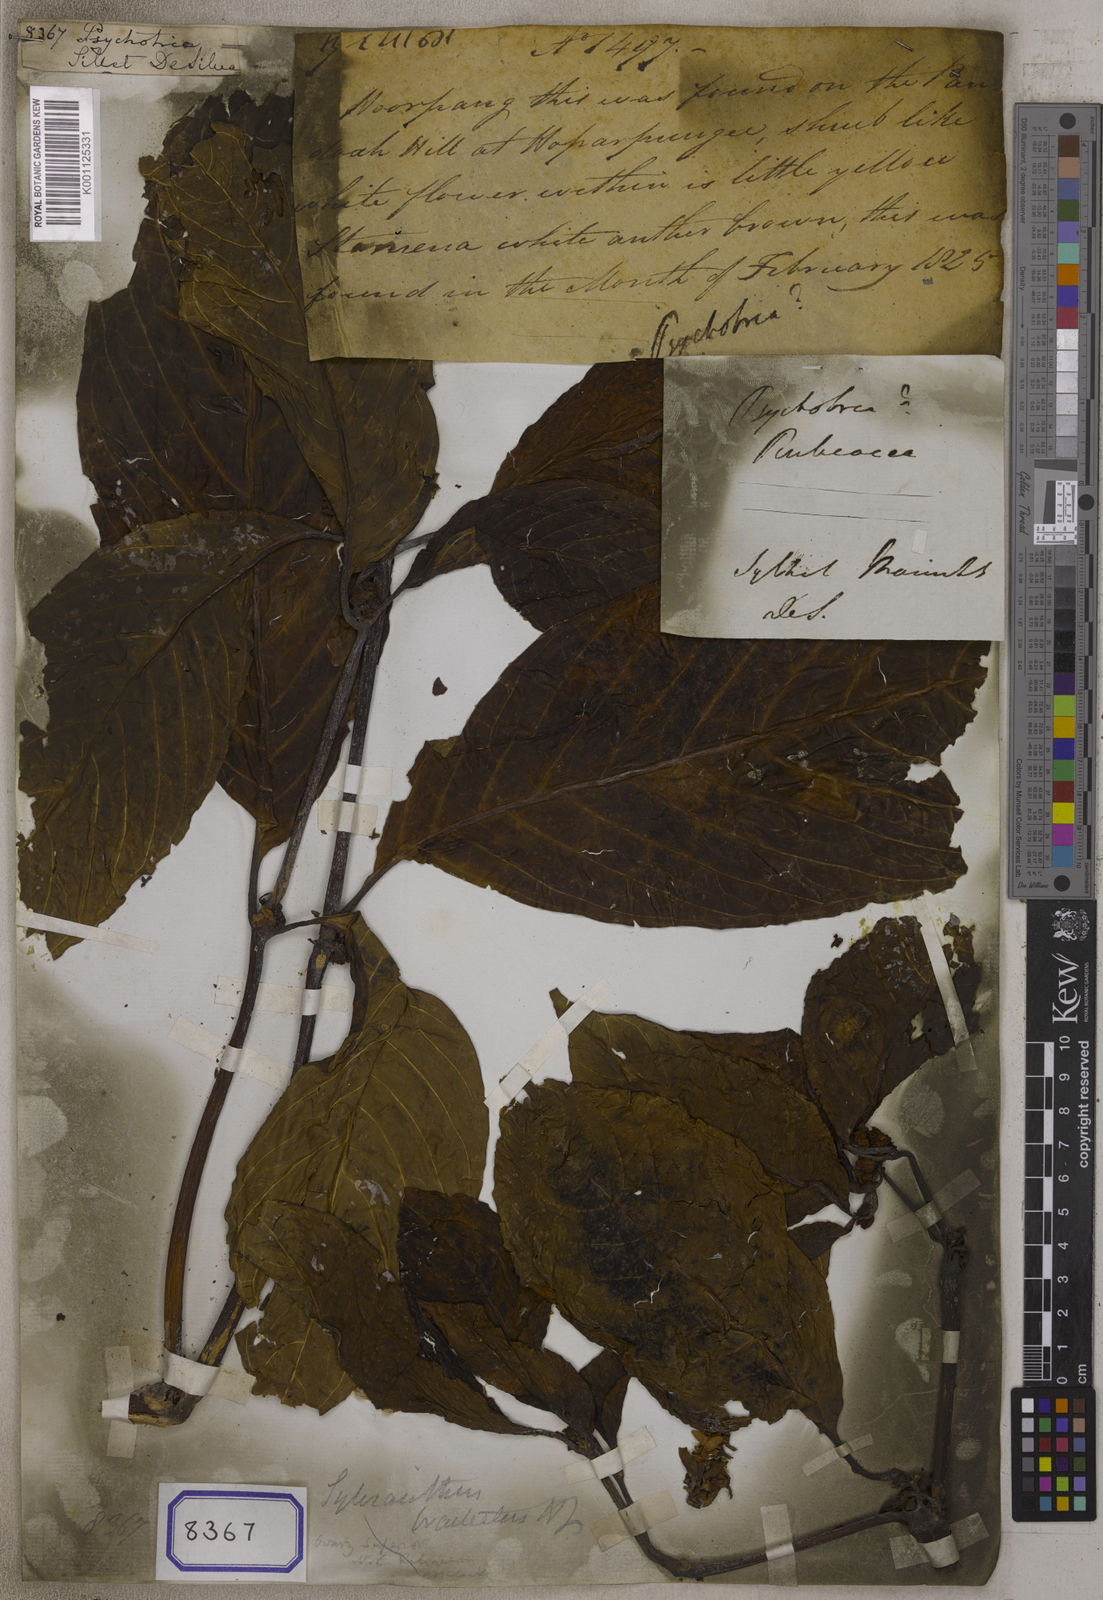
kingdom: Plantae
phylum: Tracheophyta
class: Magnoliopsida
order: Gentianales
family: Rubiaceae
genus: Psychotria
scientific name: Psychotria
